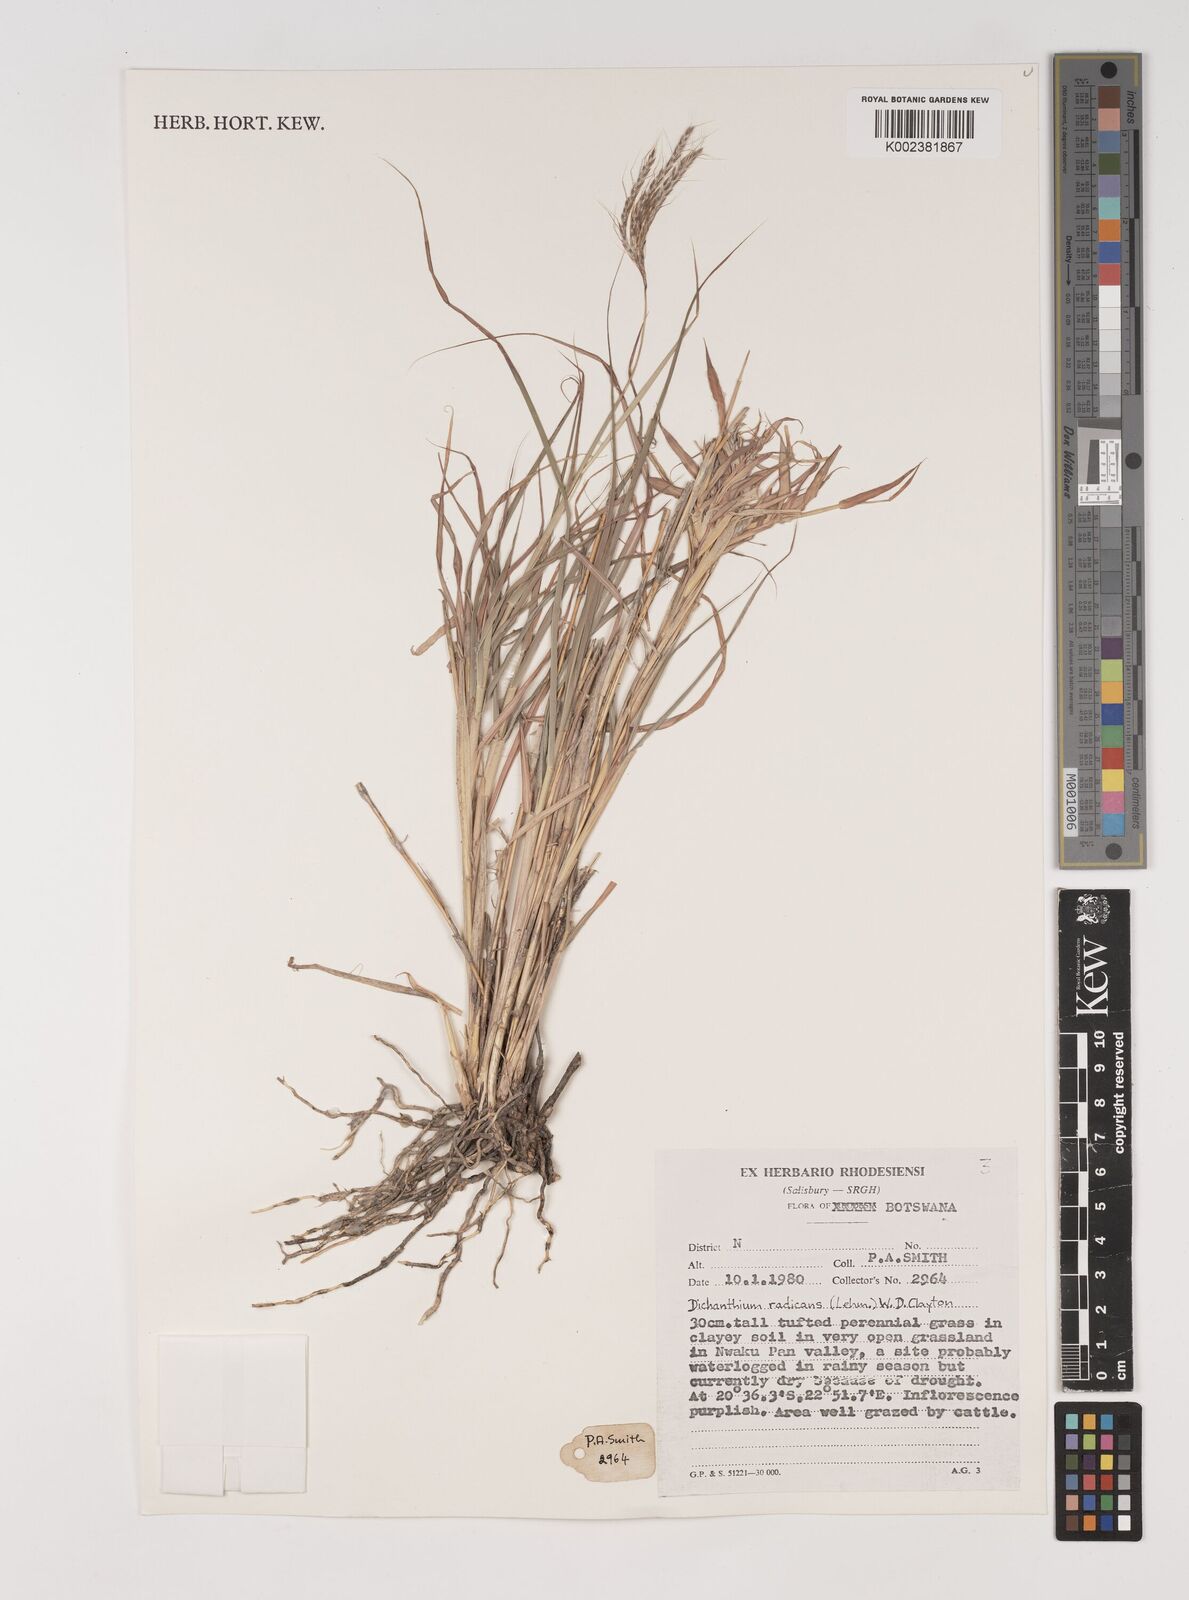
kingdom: Plantae
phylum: Tracheophyta
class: Liliopsida
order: Poales
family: Poaceae
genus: Bothriochloa
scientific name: Bothriochloa radicans
